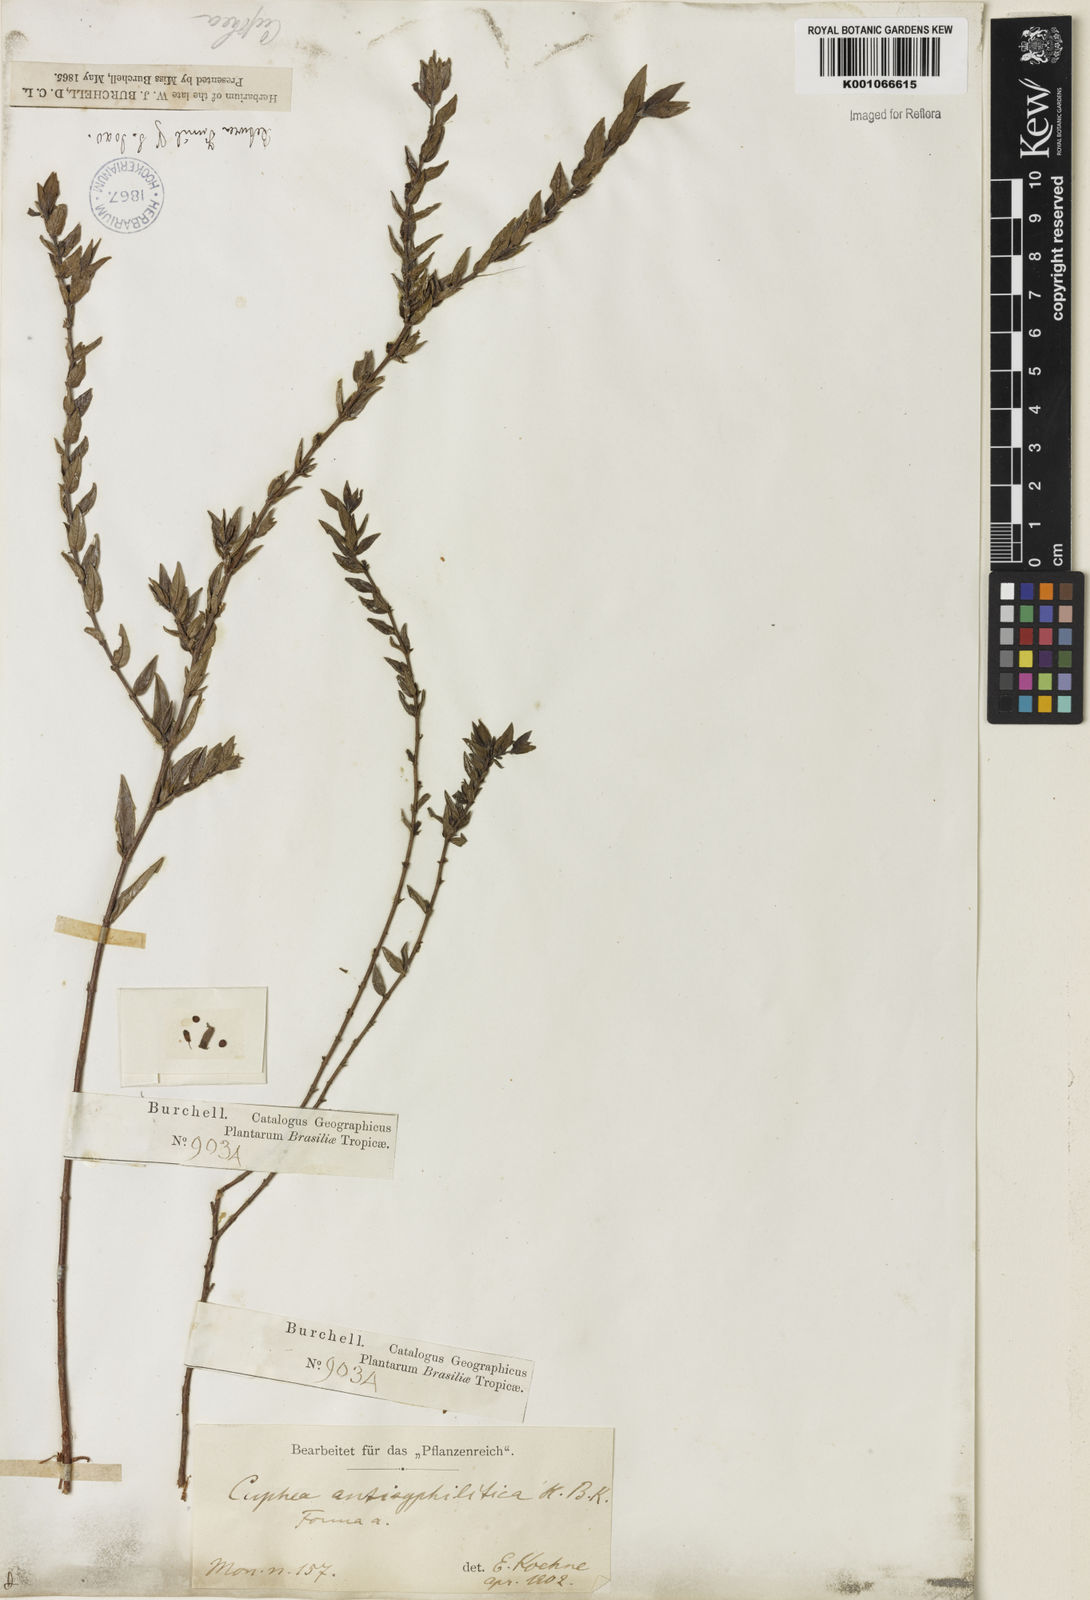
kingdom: Plantae
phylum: Tracheophyta
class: Magnoliopsida
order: Myrtales
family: Lythraceae
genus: Cuphea
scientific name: Cuphea antisyphilitica
